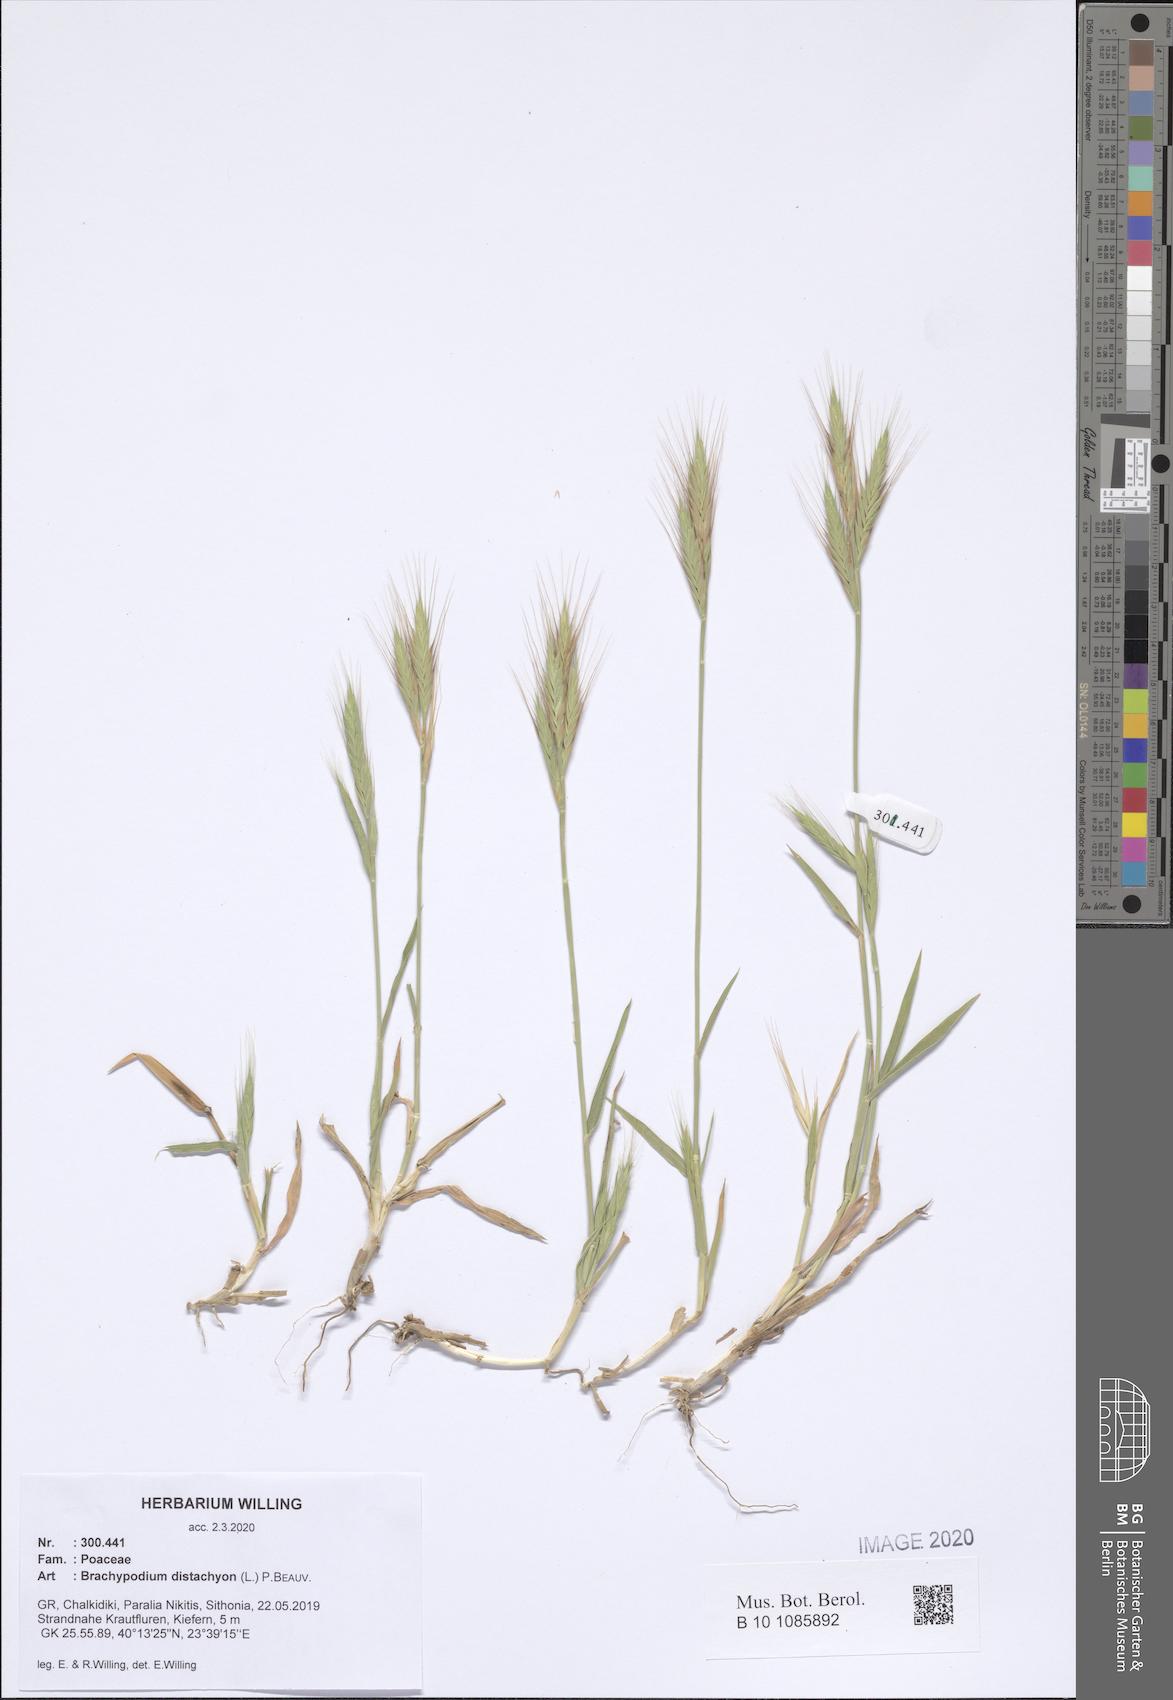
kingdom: Plantae
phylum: Tracheophyta
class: Liliopsida
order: Poales
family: Poaceae
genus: Brachypodium
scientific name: Brachypodium distachyon
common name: Stiff brome
